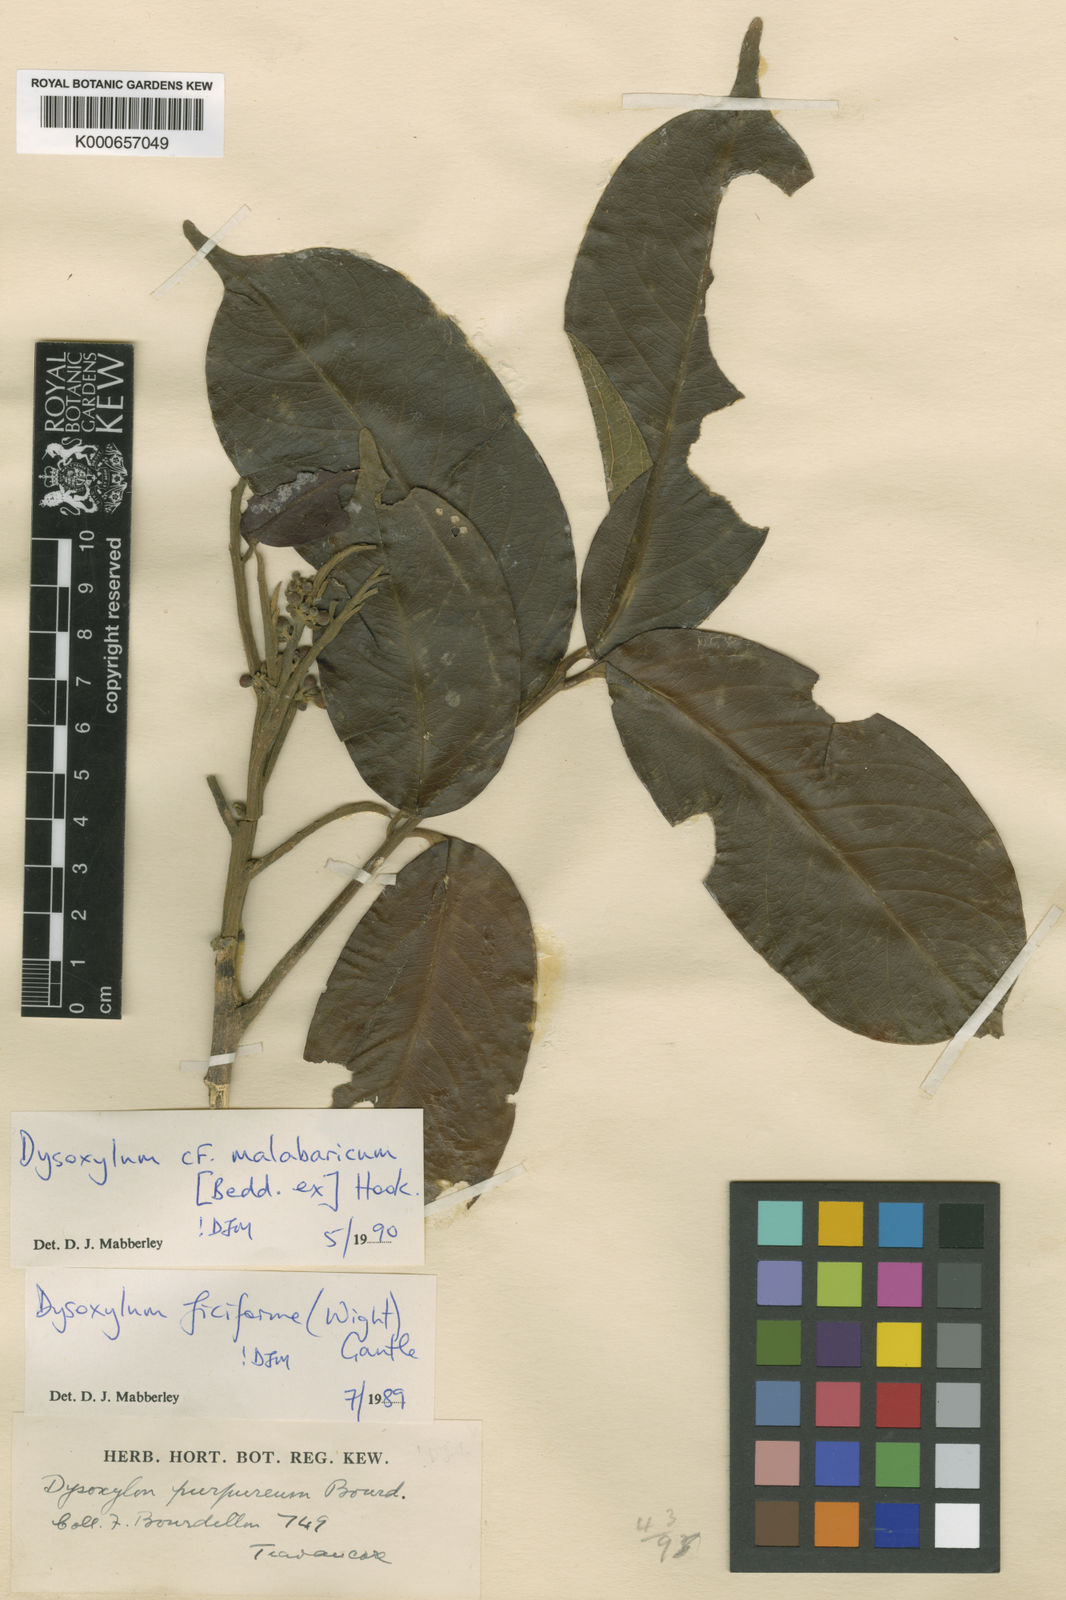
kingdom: Plantae
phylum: Tracheophyta
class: Magnoliopsida
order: Sapindales
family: Meliaceae
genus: Dysoxylum
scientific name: Dysoxylum malabaricum
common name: White cedar
